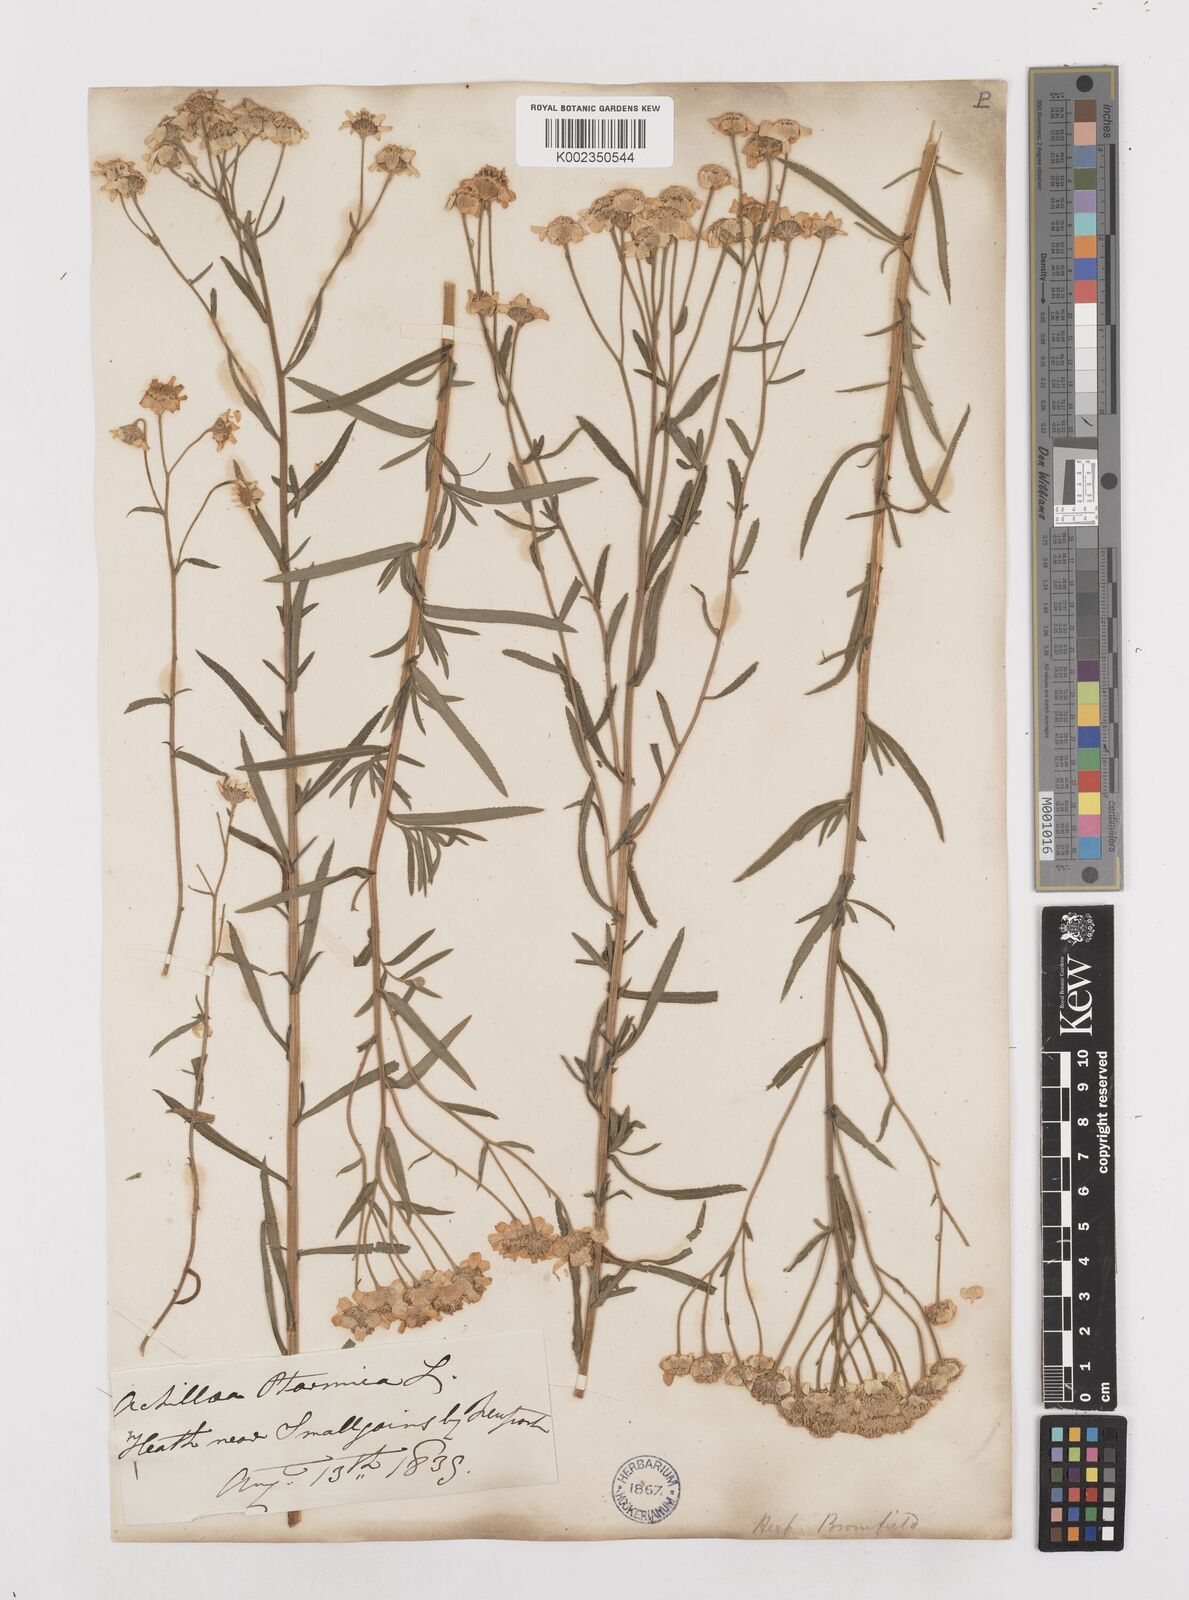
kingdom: Plantae
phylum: Tracheophyta
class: Magnoliopsida
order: Asterales
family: Asteraceae
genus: Achillea
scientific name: Achillea ptarmica
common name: Sneezeweed
